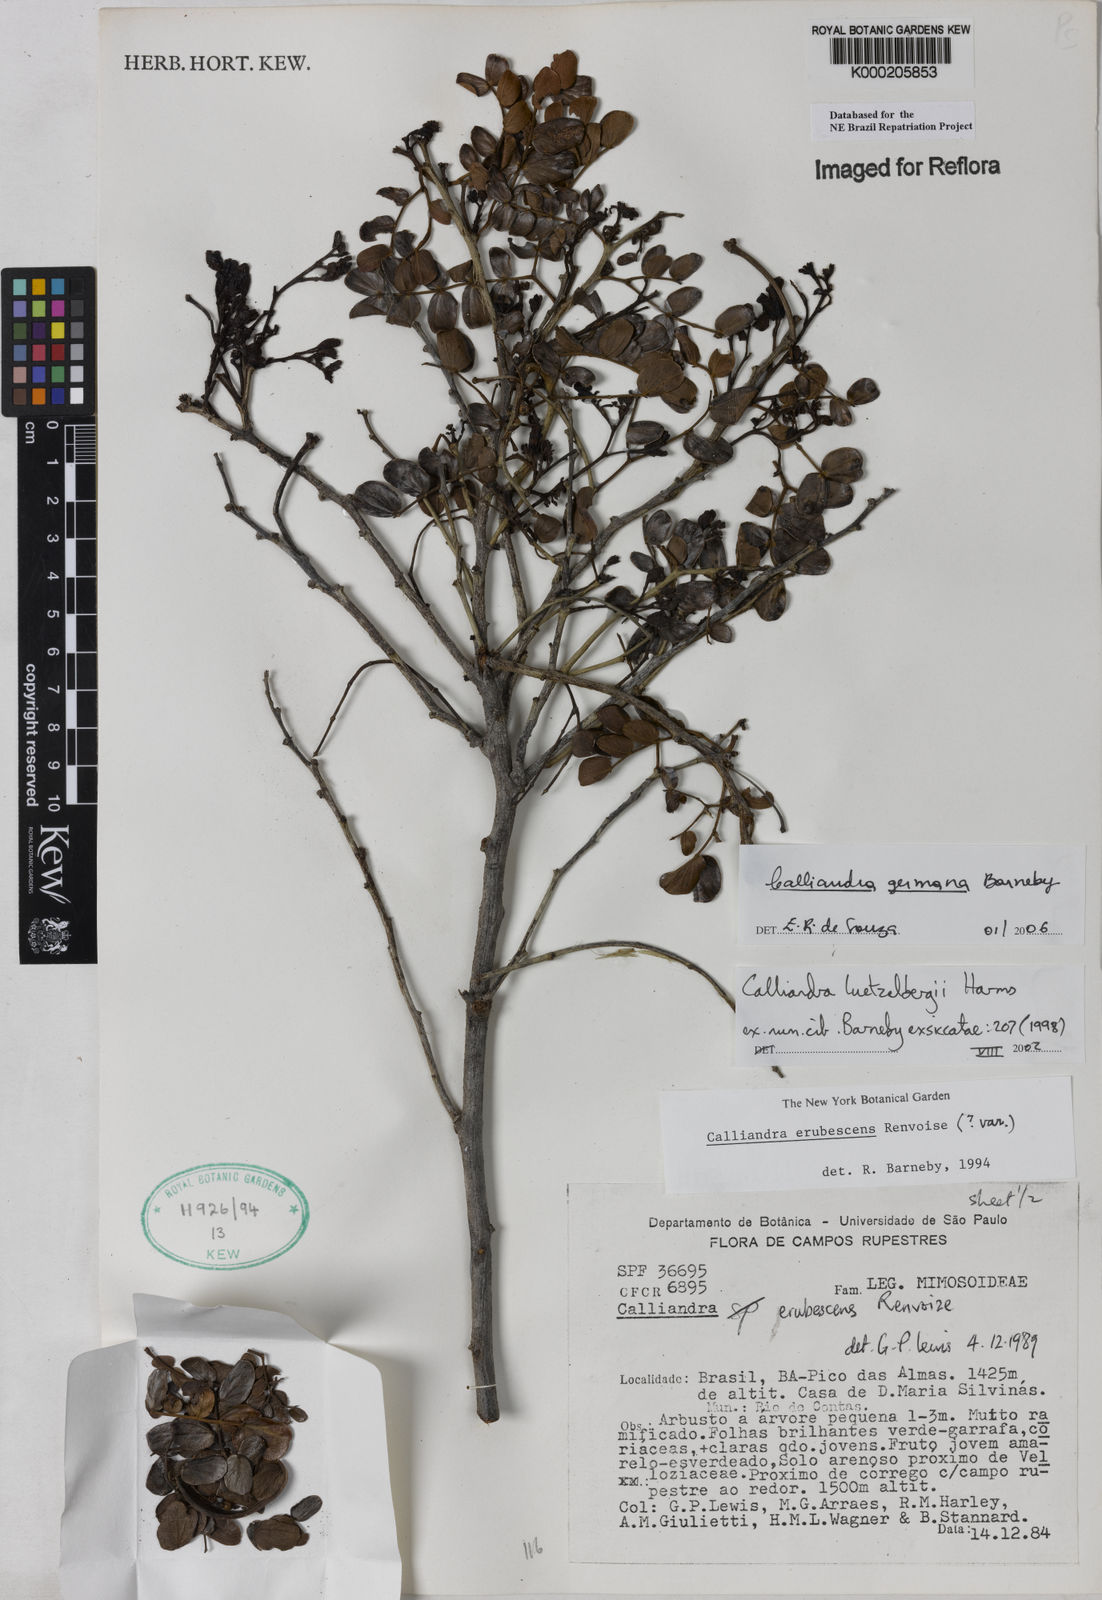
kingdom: Plantae
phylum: Tracheophyta
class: Magnoliopsida
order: Fabales
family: Fabaceae
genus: Calliandra
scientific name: Calliandra luetzelburgii
